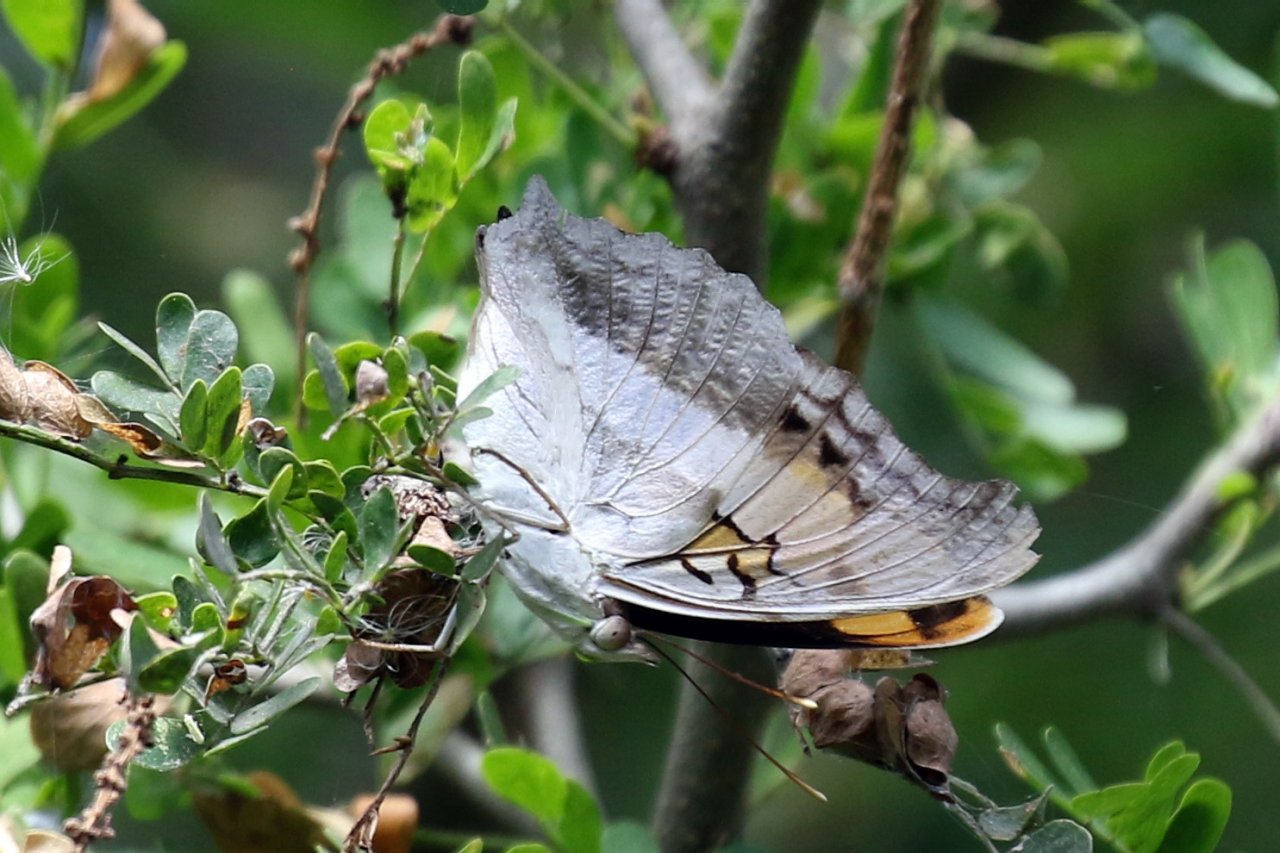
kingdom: Animalia
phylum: Arthropoda
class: Insecta
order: Lepidoptera
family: Nymphalidae
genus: Doxocopa
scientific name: Doxocopa laure
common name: Silver Emperor
